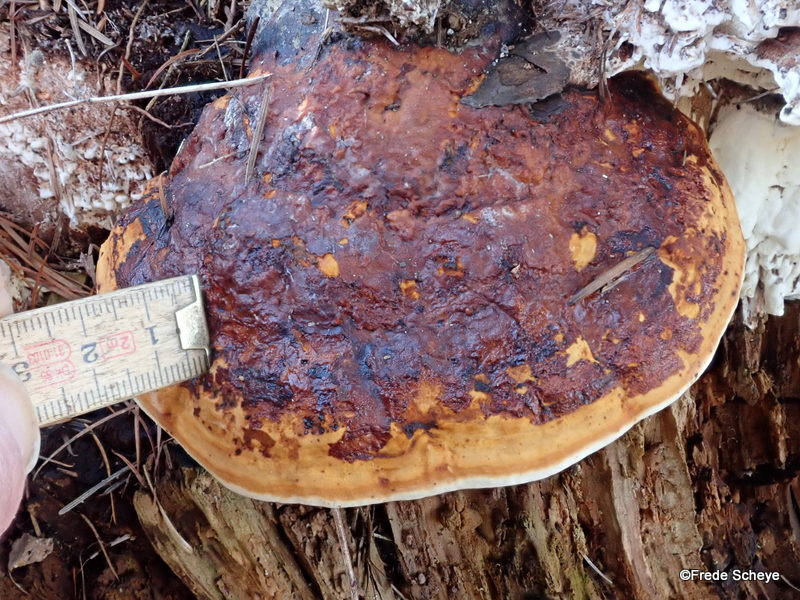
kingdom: Fungi
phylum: Basidiomycota
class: Agaricomycetes
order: Polyporales
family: Fomitopsidaceae
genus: Fomitopsis
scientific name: Fomitopsis pinicola
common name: randbæltet hovporesvamp
